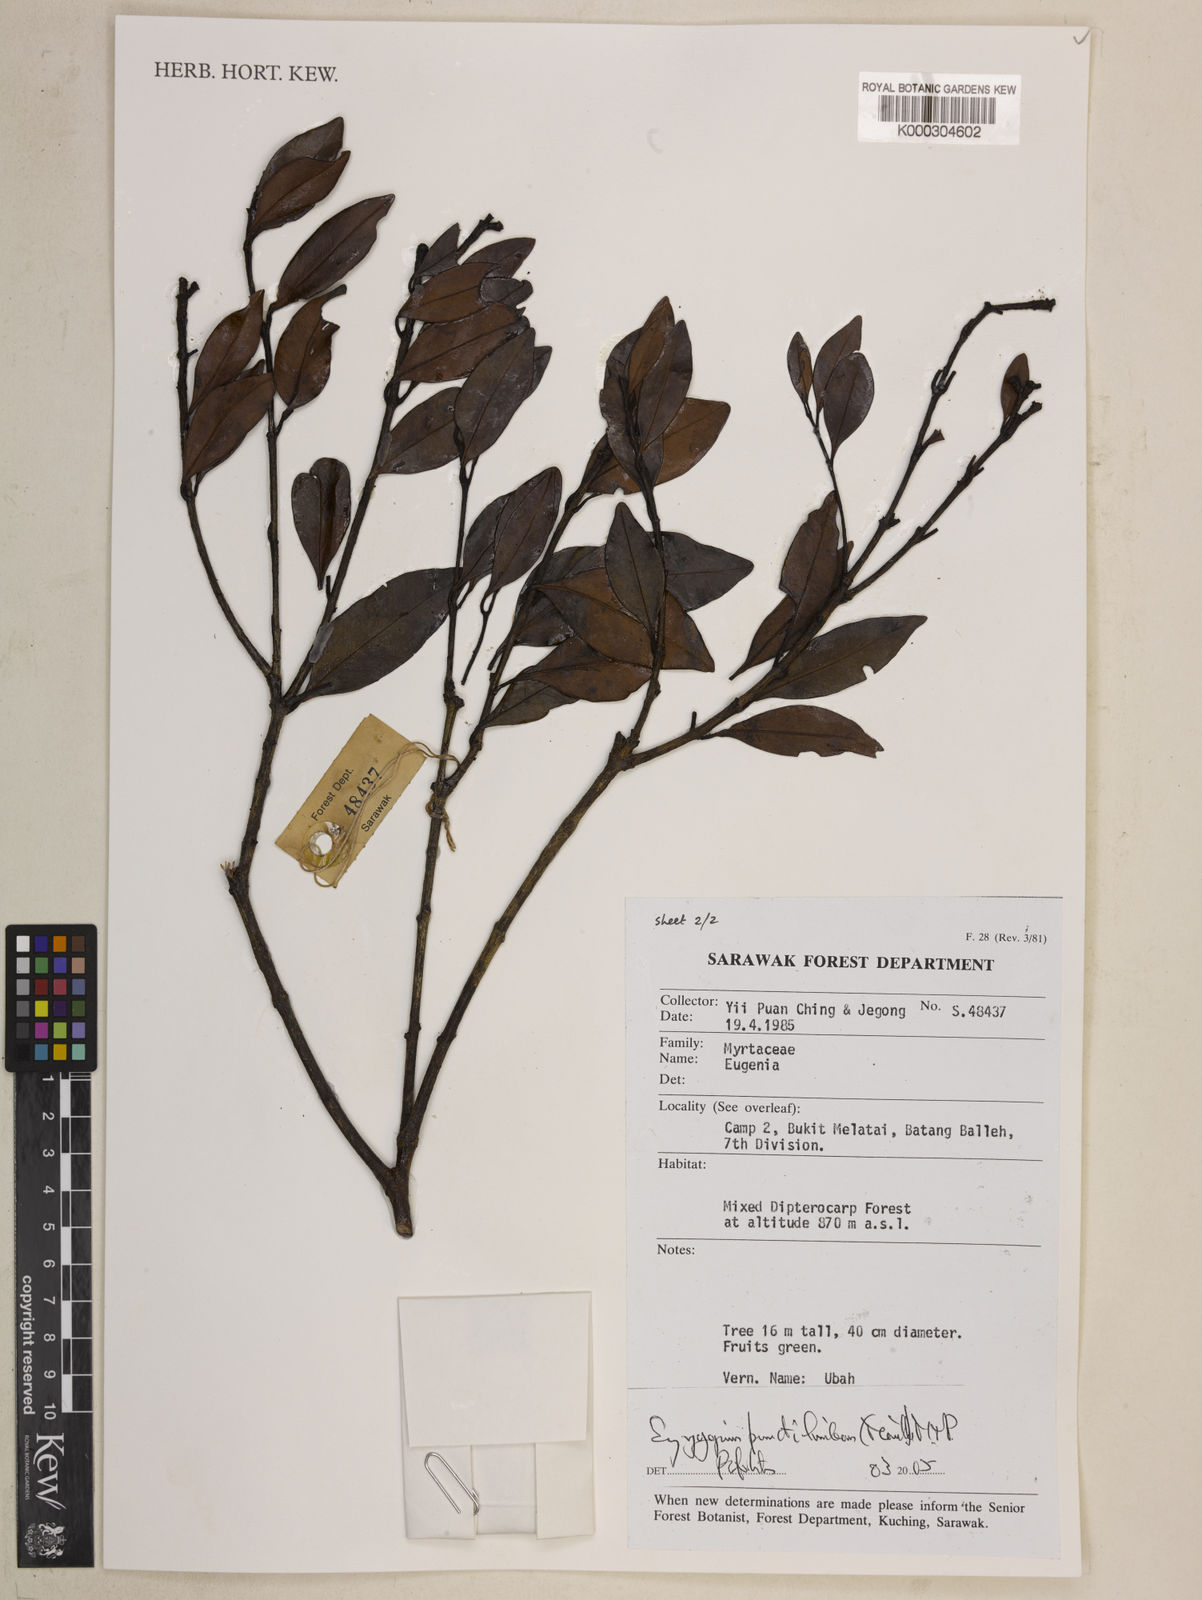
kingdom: Plantae
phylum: Tracheophyta
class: Magnoliopsida
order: Myrtales
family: Myrtaceae
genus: Syzygium
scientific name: Syzygium punctilimbum
